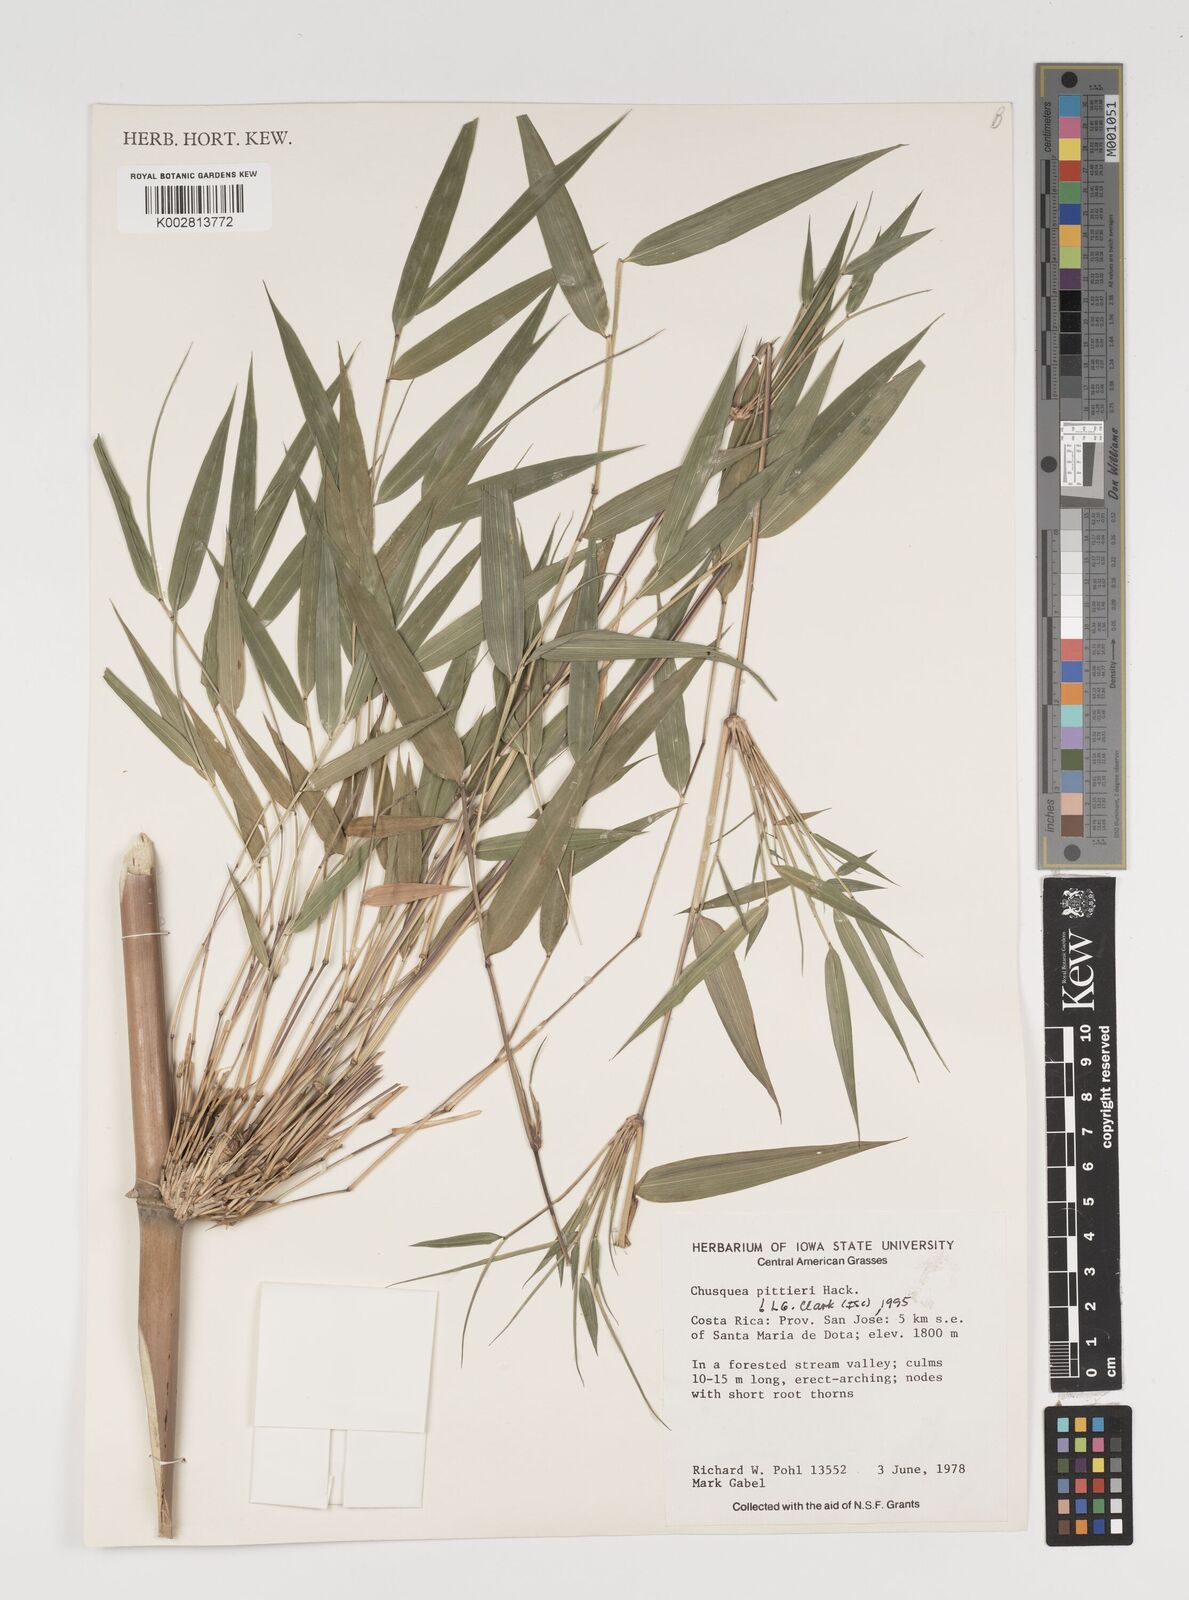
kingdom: Plantae
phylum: Tracheophyta
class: Liliopsida
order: Poales
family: Poaceae
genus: Chusquea
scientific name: Chusquea pittieri
